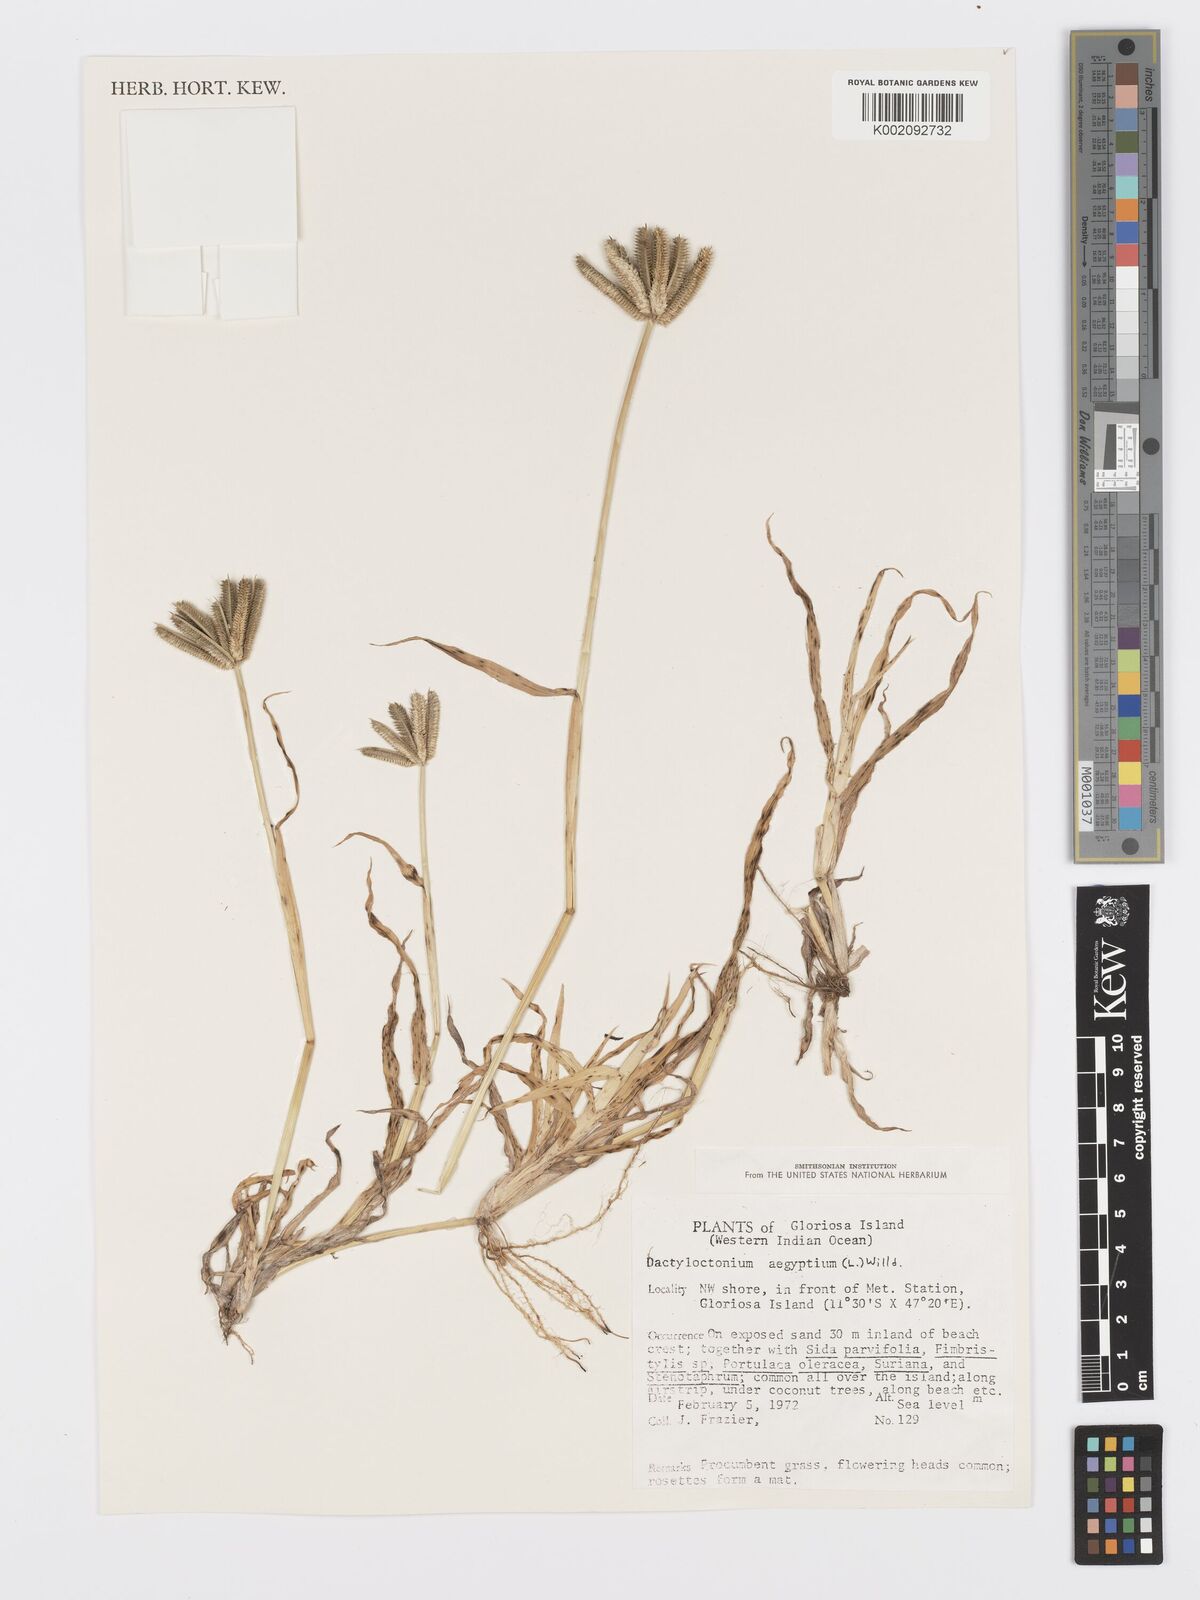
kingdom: Plantae
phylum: Tracheophyta
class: Liliopsida
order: Poales
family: Poaceae
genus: Dactyloctenium
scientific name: Dactyloctenium aegyptium
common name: Egyptian grass
